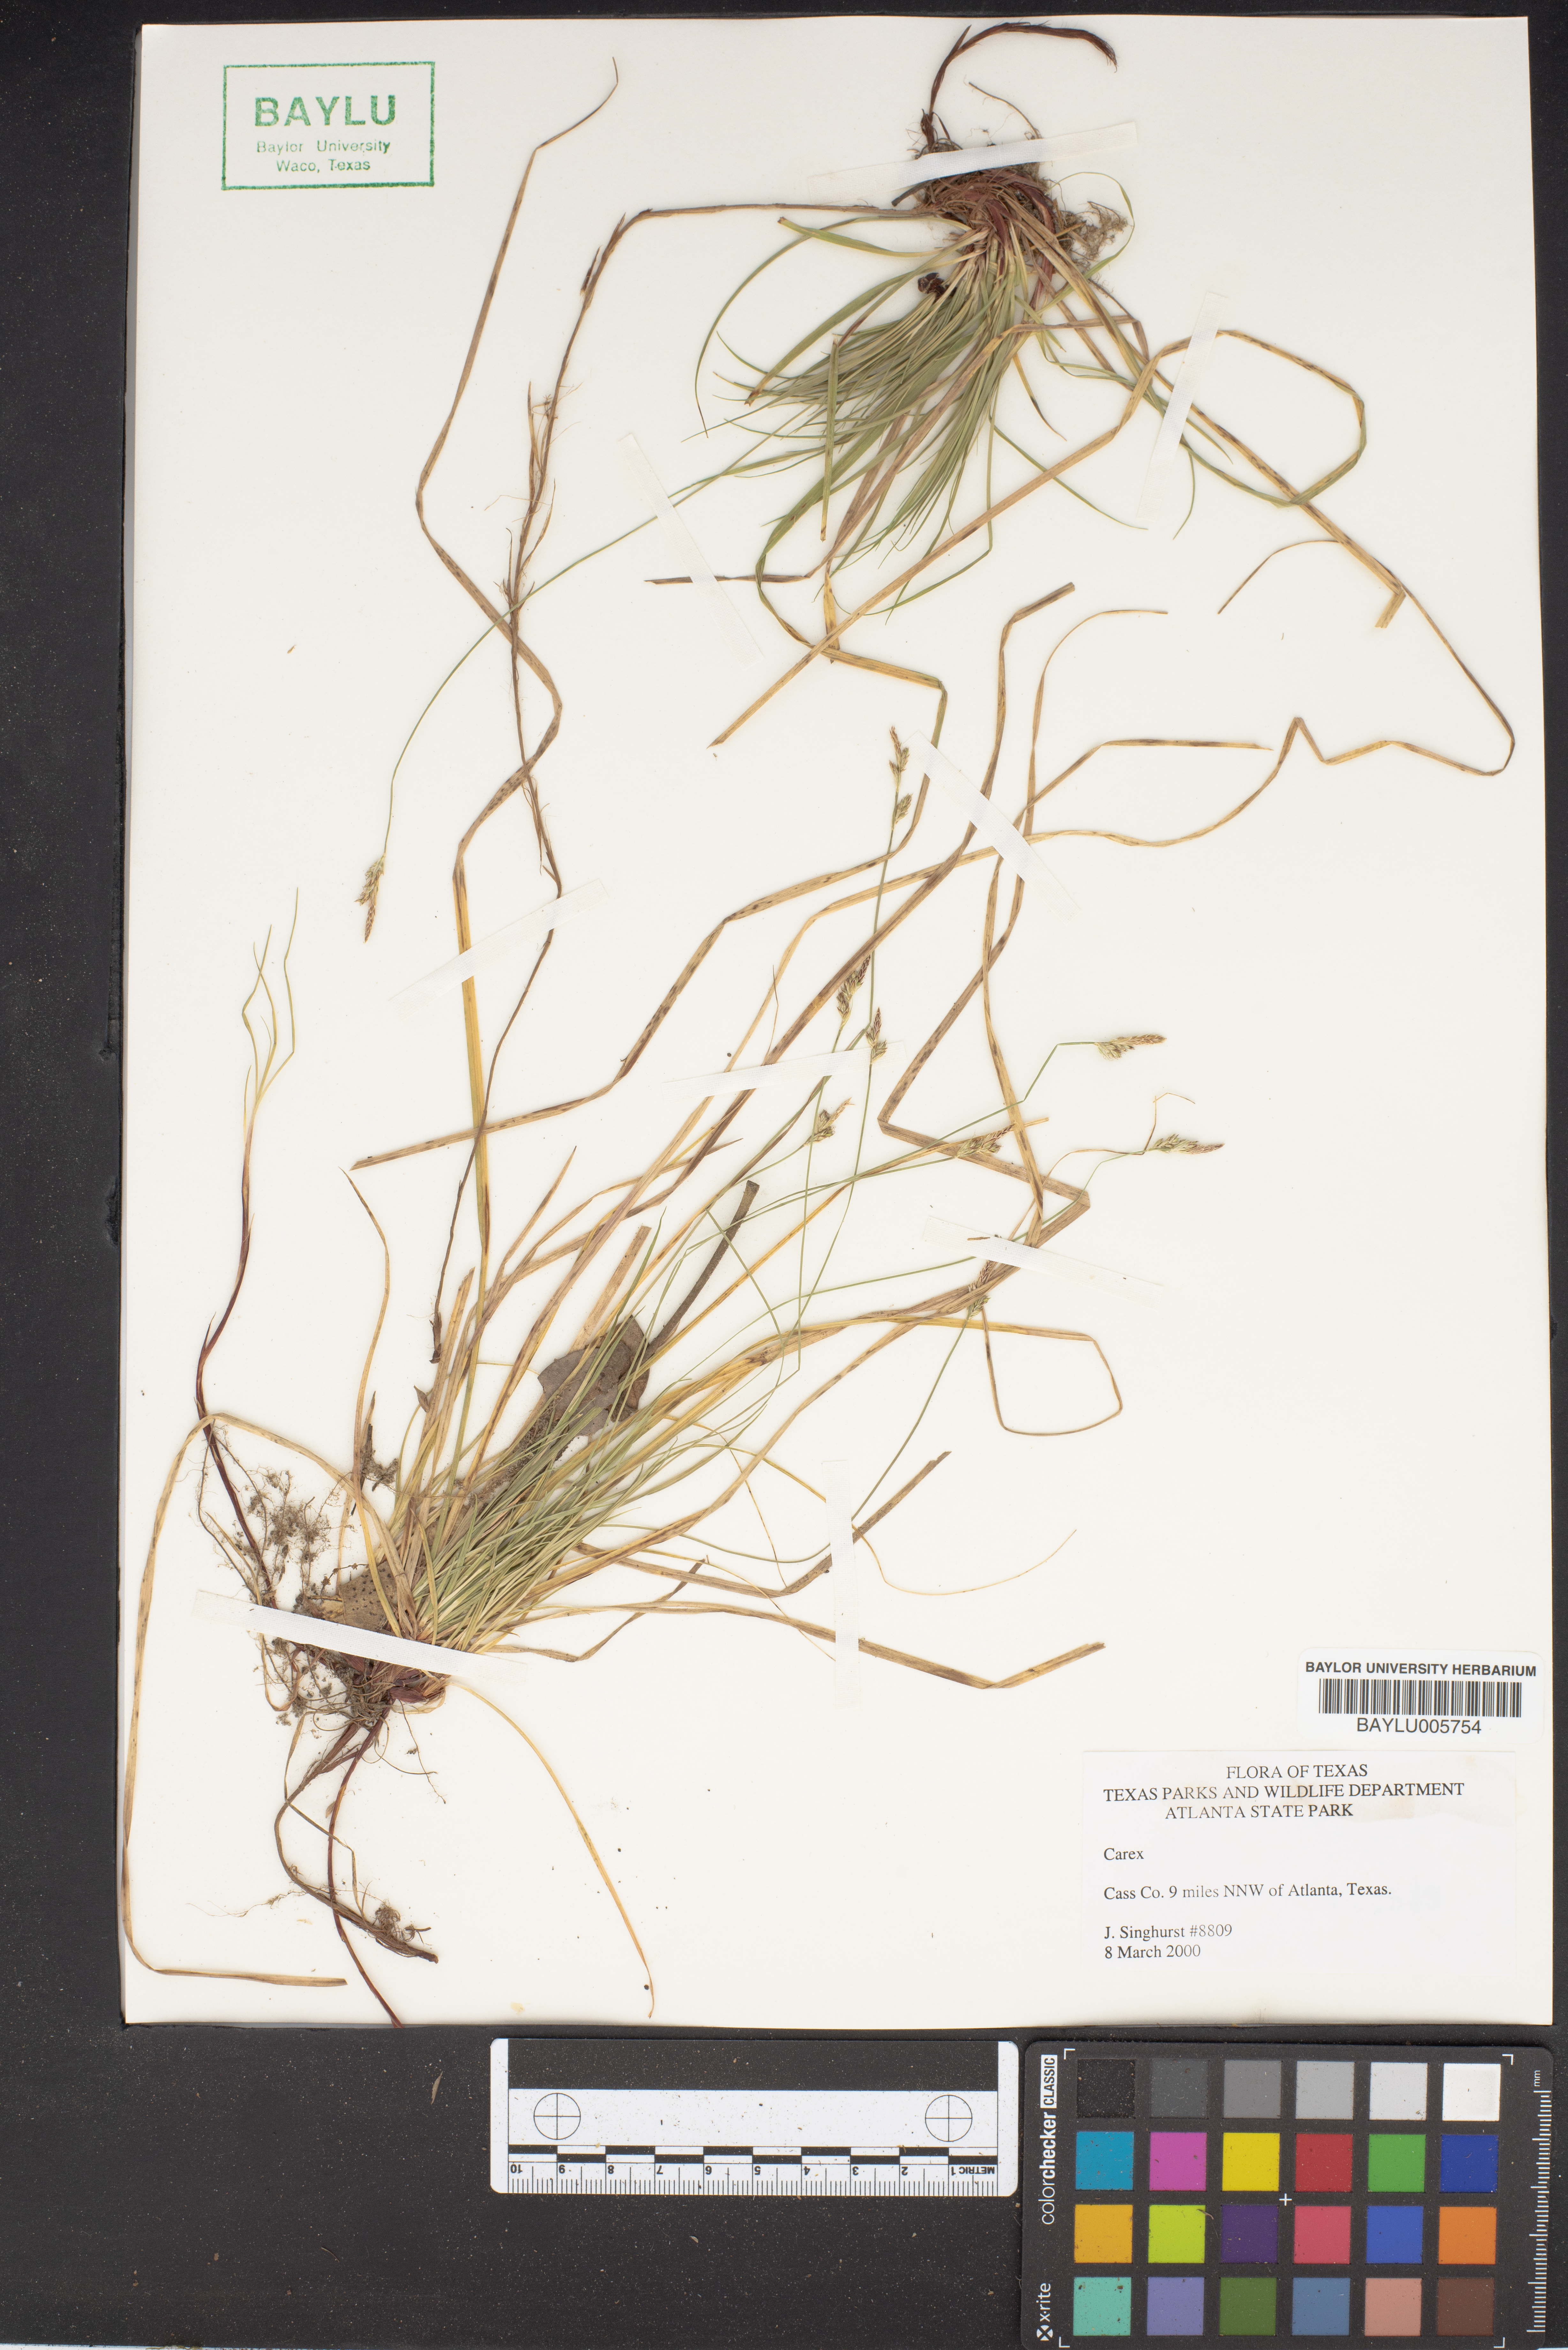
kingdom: Plantae
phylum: Tracheophyta
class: Liliopsida
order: Poales
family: Cyperaceae
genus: Carex
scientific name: Carex
